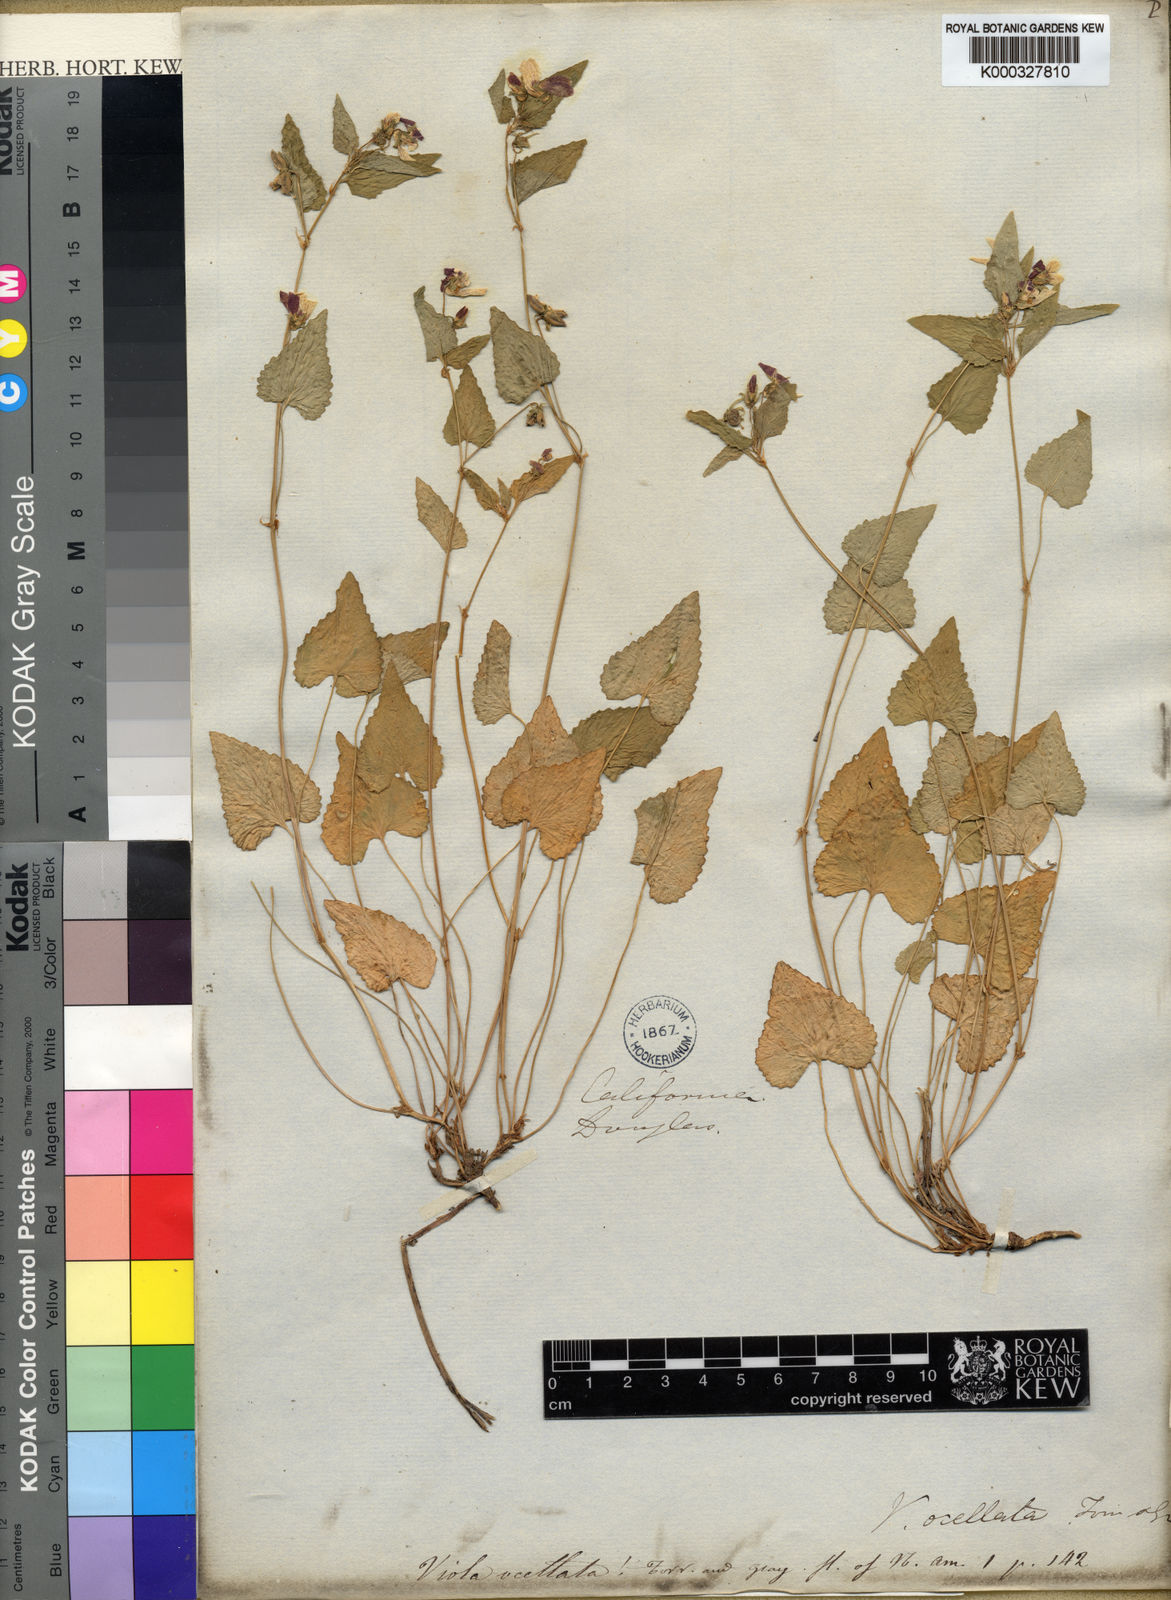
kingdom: Plantae
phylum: Tracheophyta
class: Magnoliopsida
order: Malpighiales
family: Violaceae
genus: Viola
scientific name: Viola ocellata
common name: Western heart's ease
